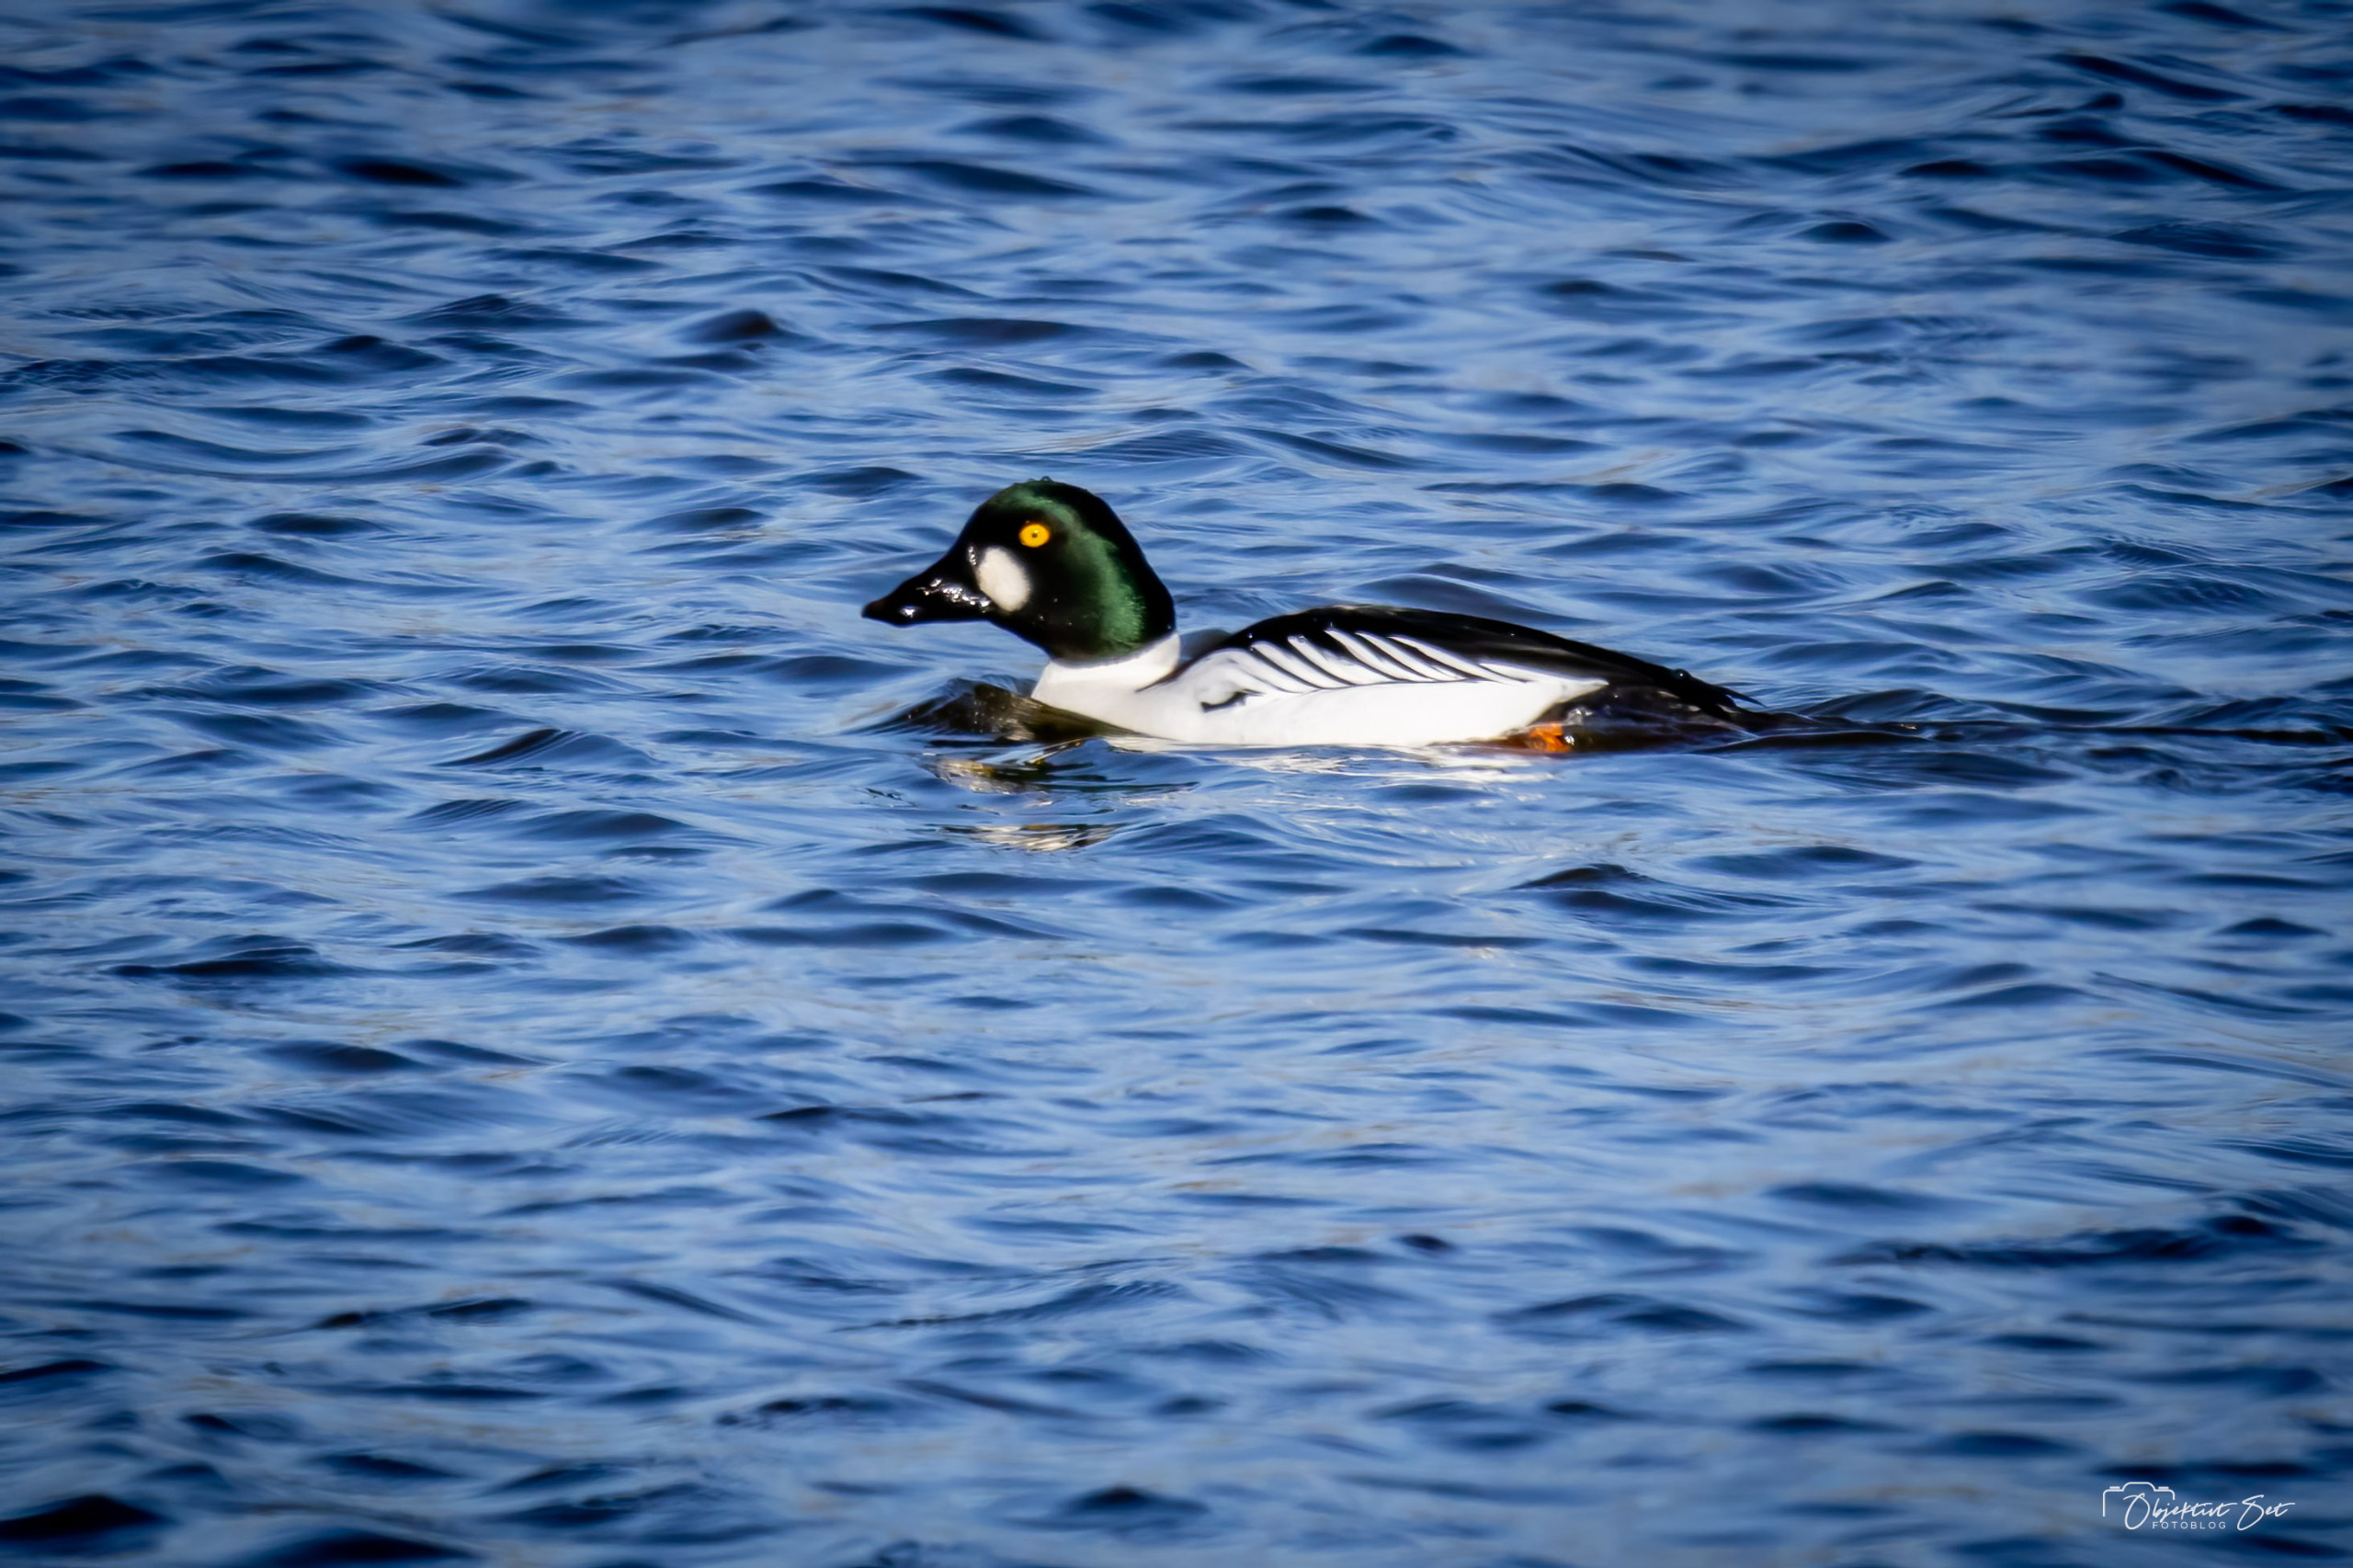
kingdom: Animalia
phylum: Chordata
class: Aves
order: Anseriformes
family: Anatidae
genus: Bucephala
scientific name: Bucephala clangula
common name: Hvinand
